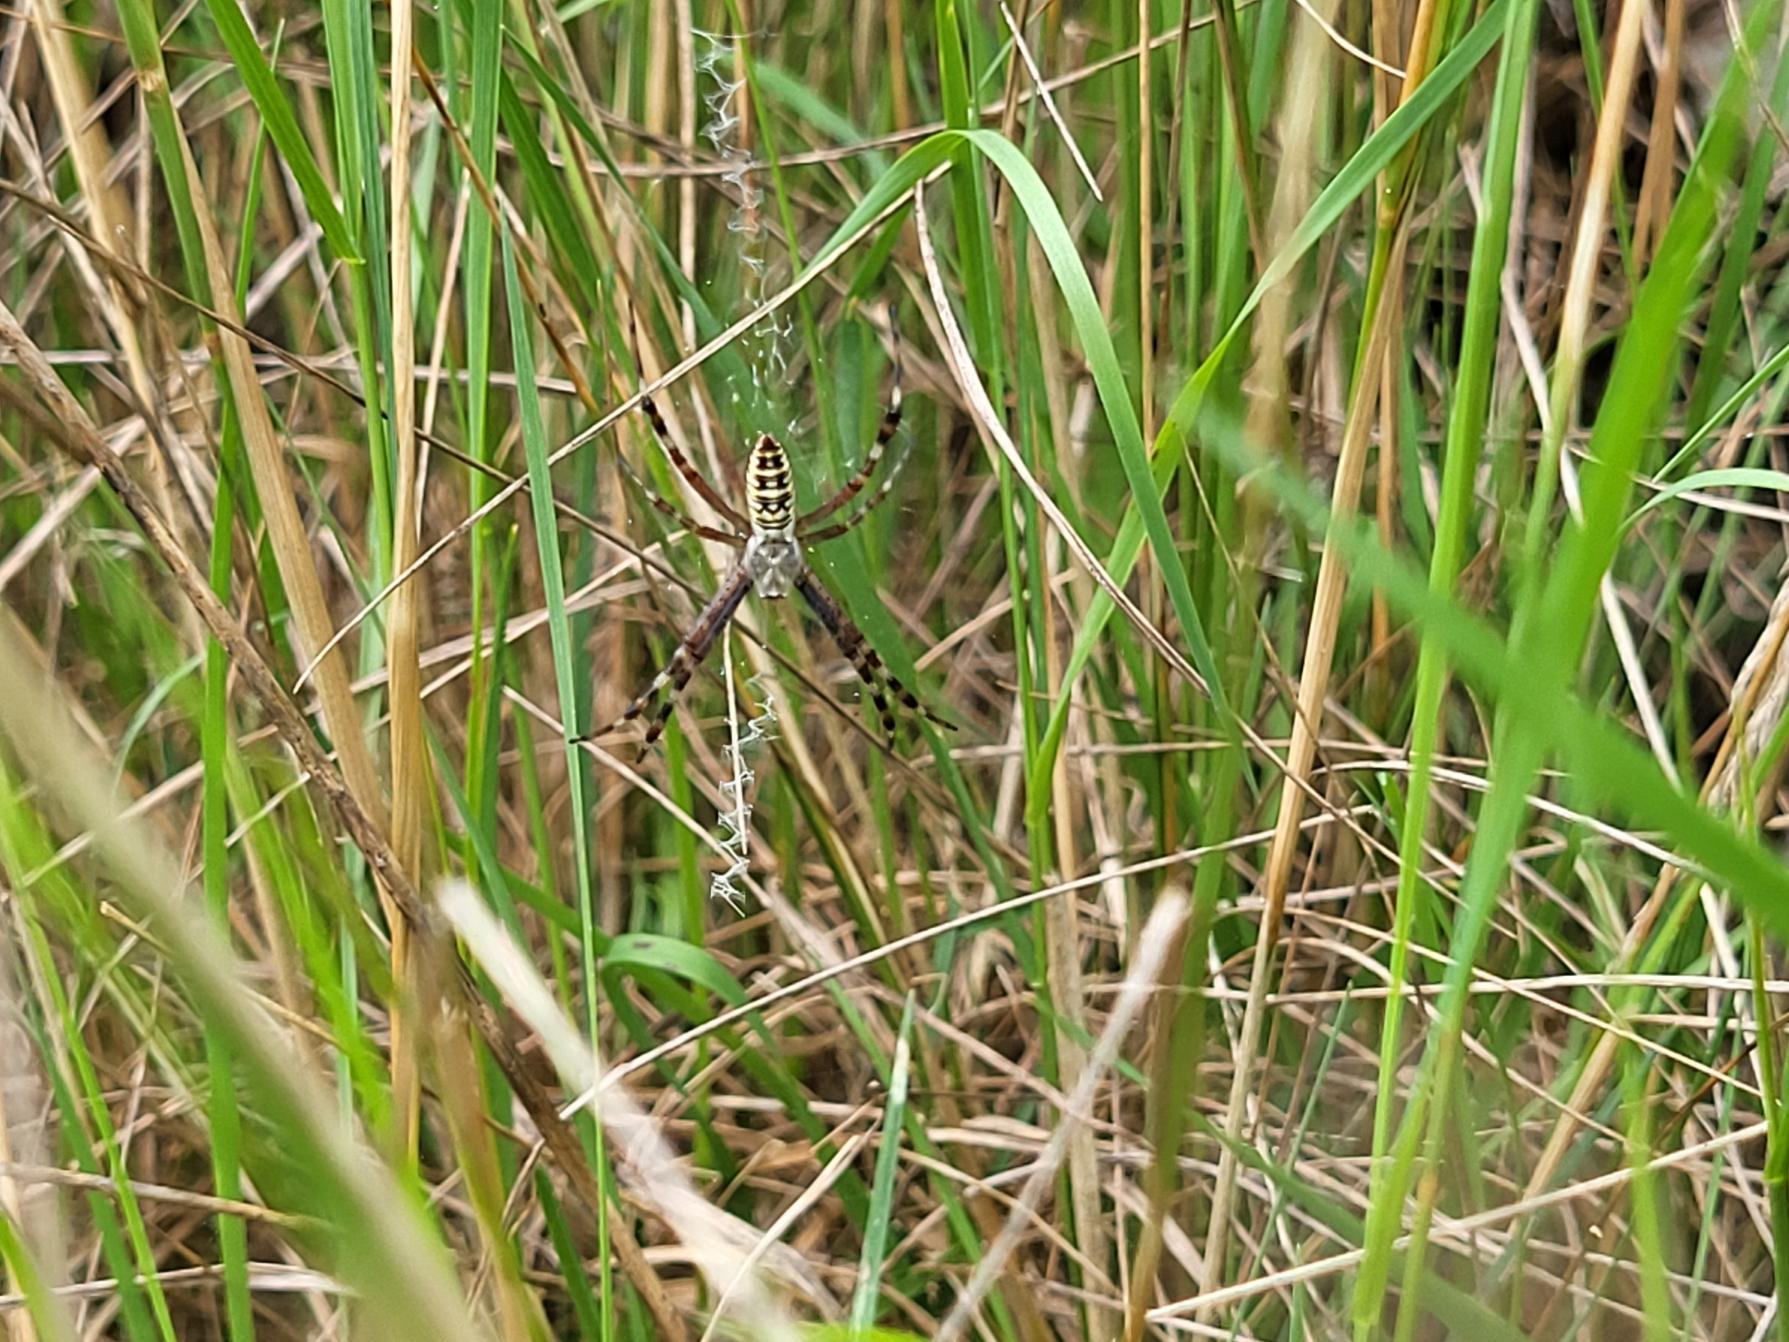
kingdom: Animalia
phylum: Arthropoda
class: Arachnida
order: Araneae
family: Araneidae
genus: Argiope
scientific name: Argiope bruennichi
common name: Hvepseedderkop
